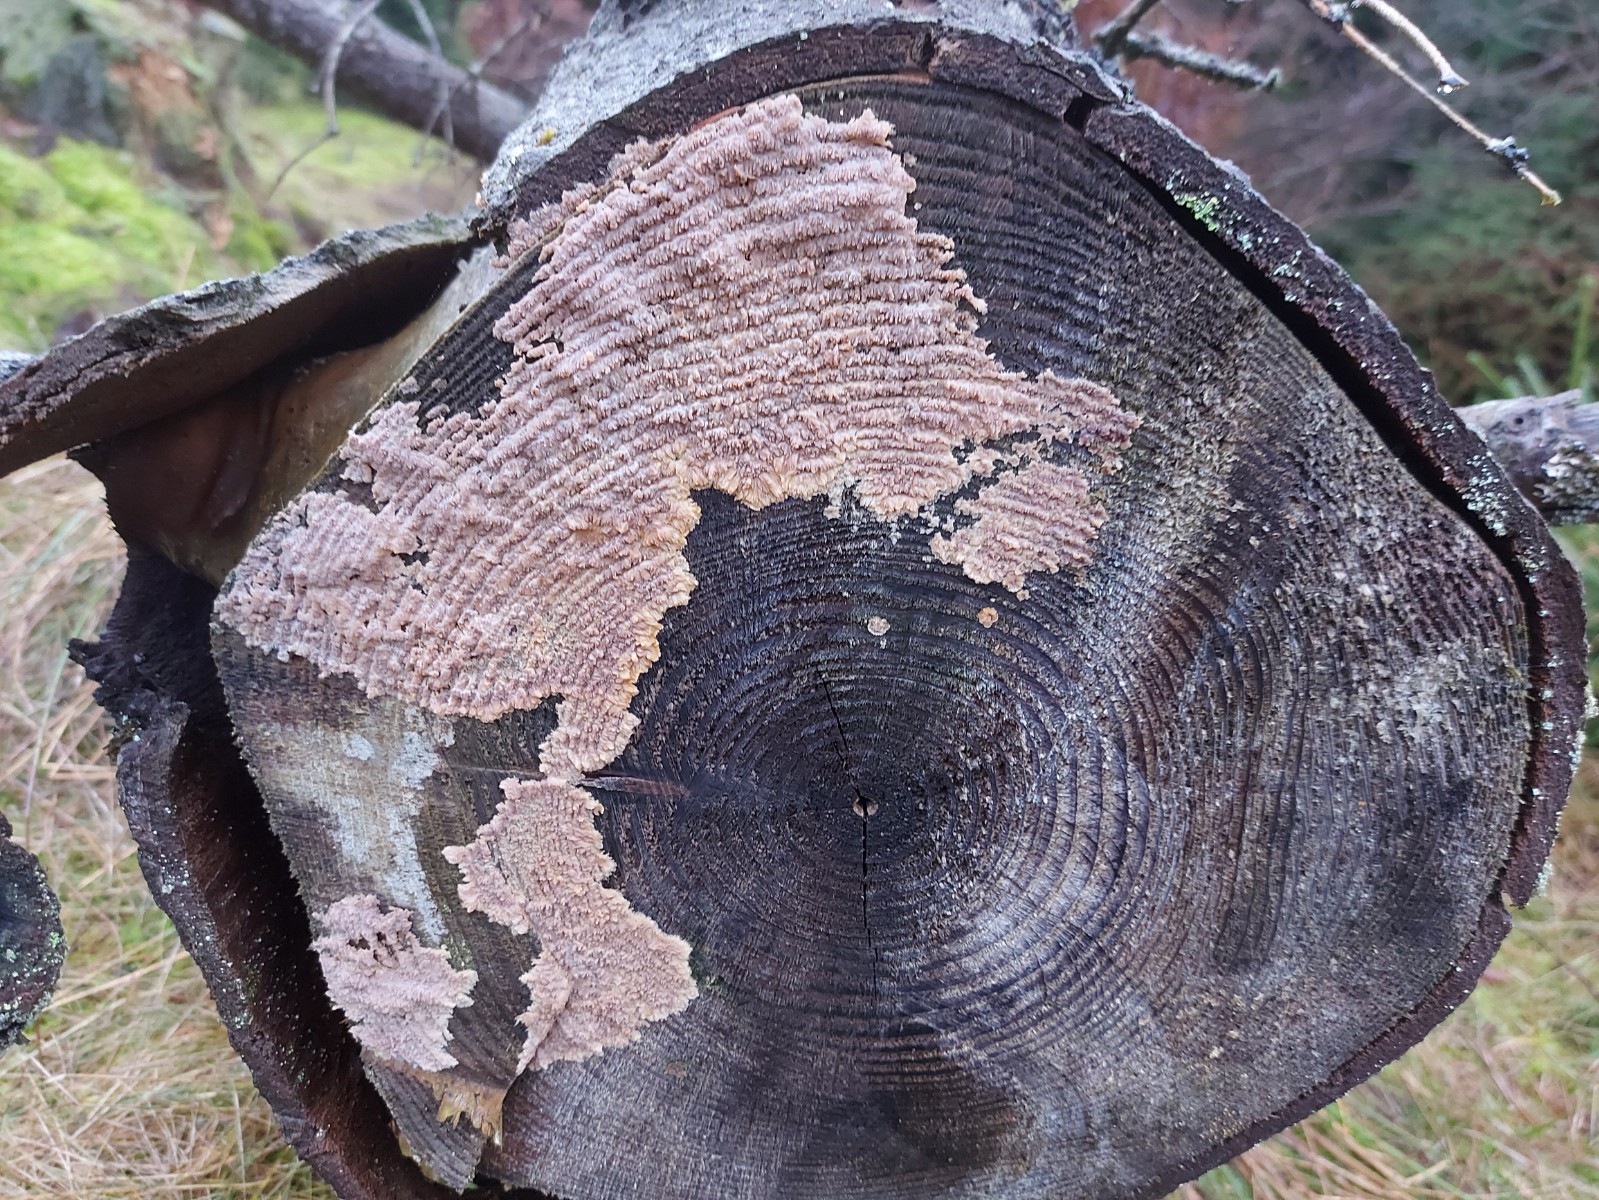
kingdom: Fungi
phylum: Basidiomycota
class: Agaricomycetes
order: Polyporales
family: Meruliaceae
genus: Phlebia
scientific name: Phlebia radiata
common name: stråle-åresvamp
